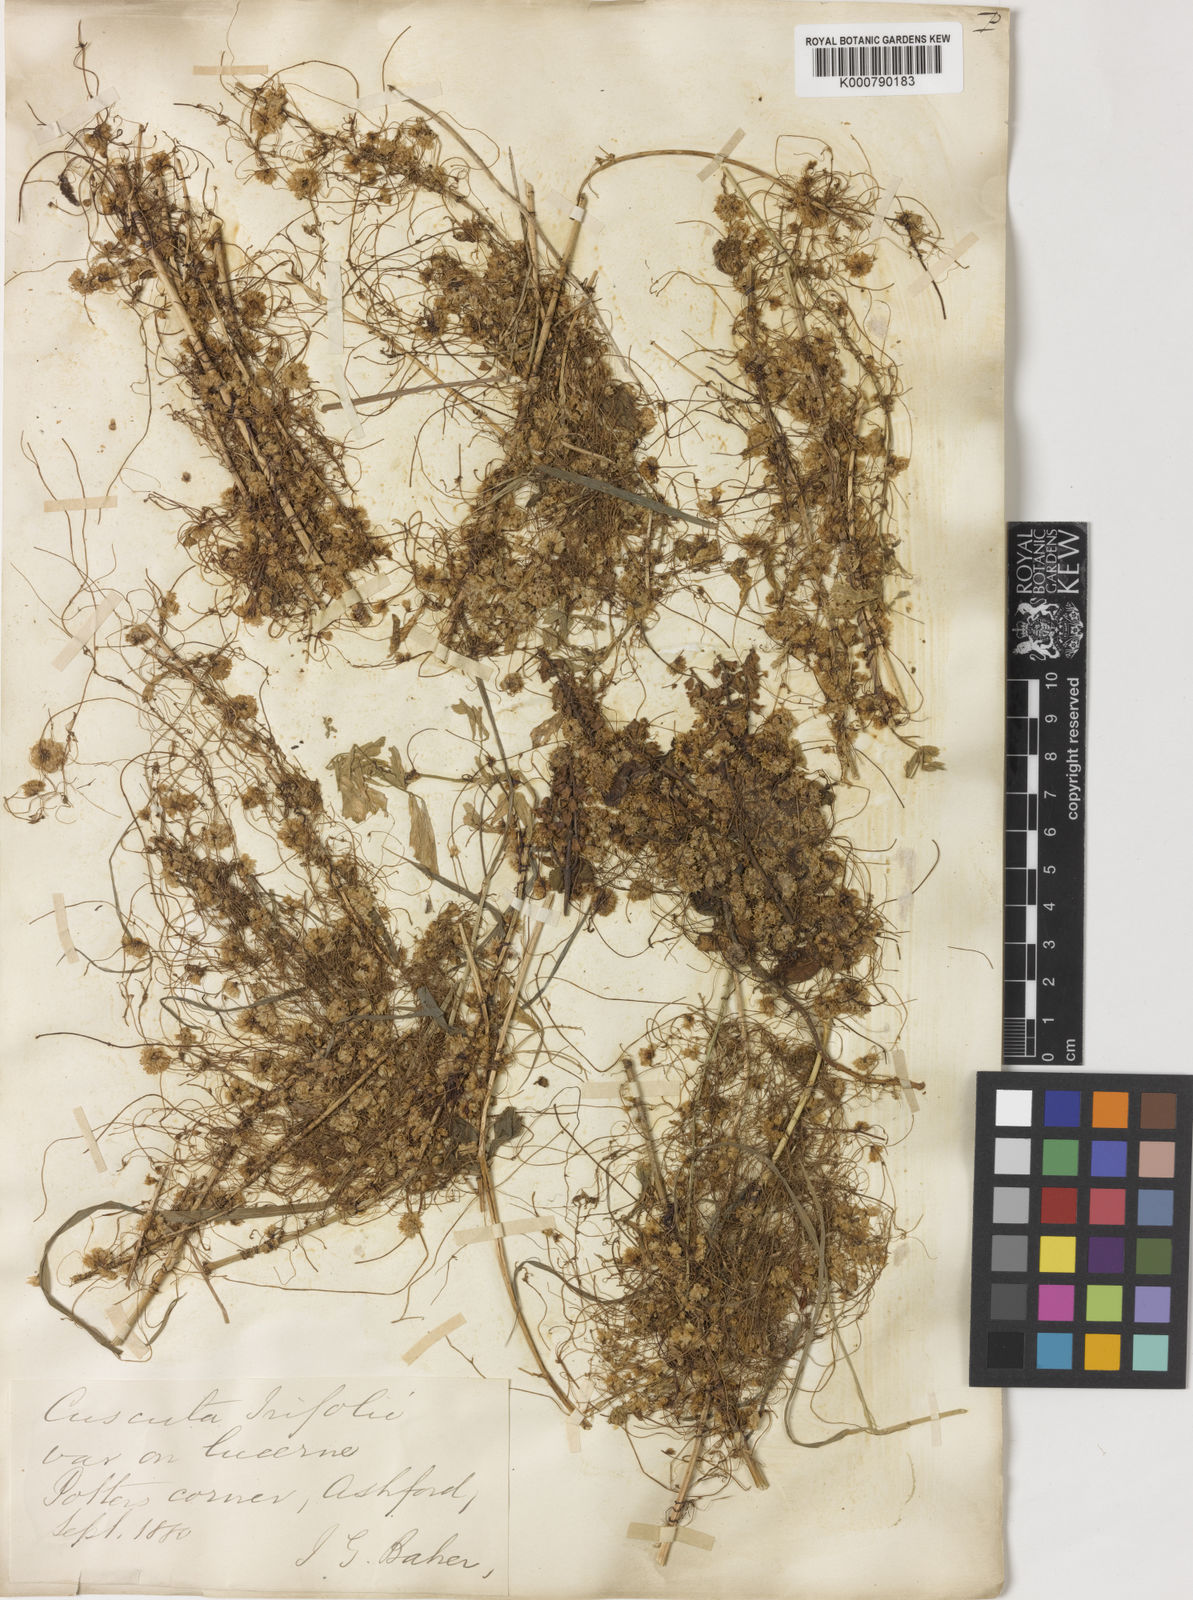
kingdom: Plantae
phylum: Tracheophyta
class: Magnoliopsida
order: Solanales
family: Convolvulaceae
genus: Cuscuta
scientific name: Cuscuta epithymum
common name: Clover dodder
